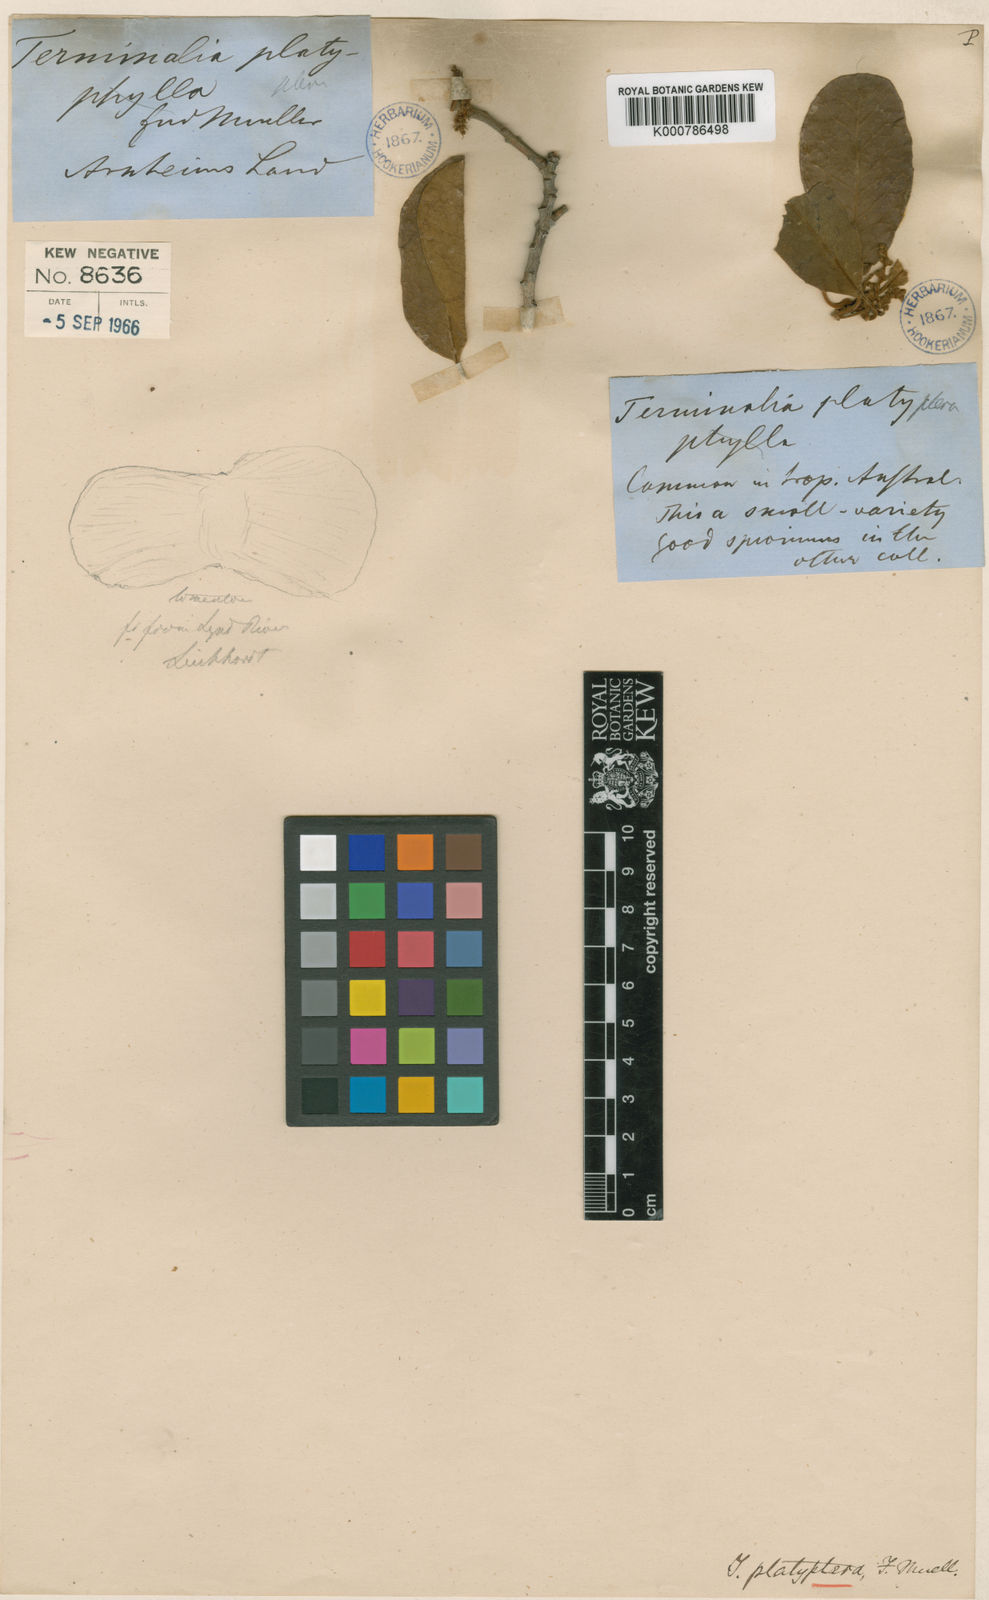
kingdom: Plantae
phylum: Tracheophyta
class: Magnoliopsida
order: Myrtales
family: Combretaceae
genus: Terminalia
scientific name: Terminalia platyptera
